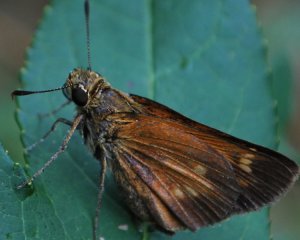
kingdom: Animalia
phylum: Arthropoda
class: Insecta
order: Lepidoptera
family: Hesperiidae
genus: Poanes
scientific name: Poanes yehl
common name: Yehl Skipper
